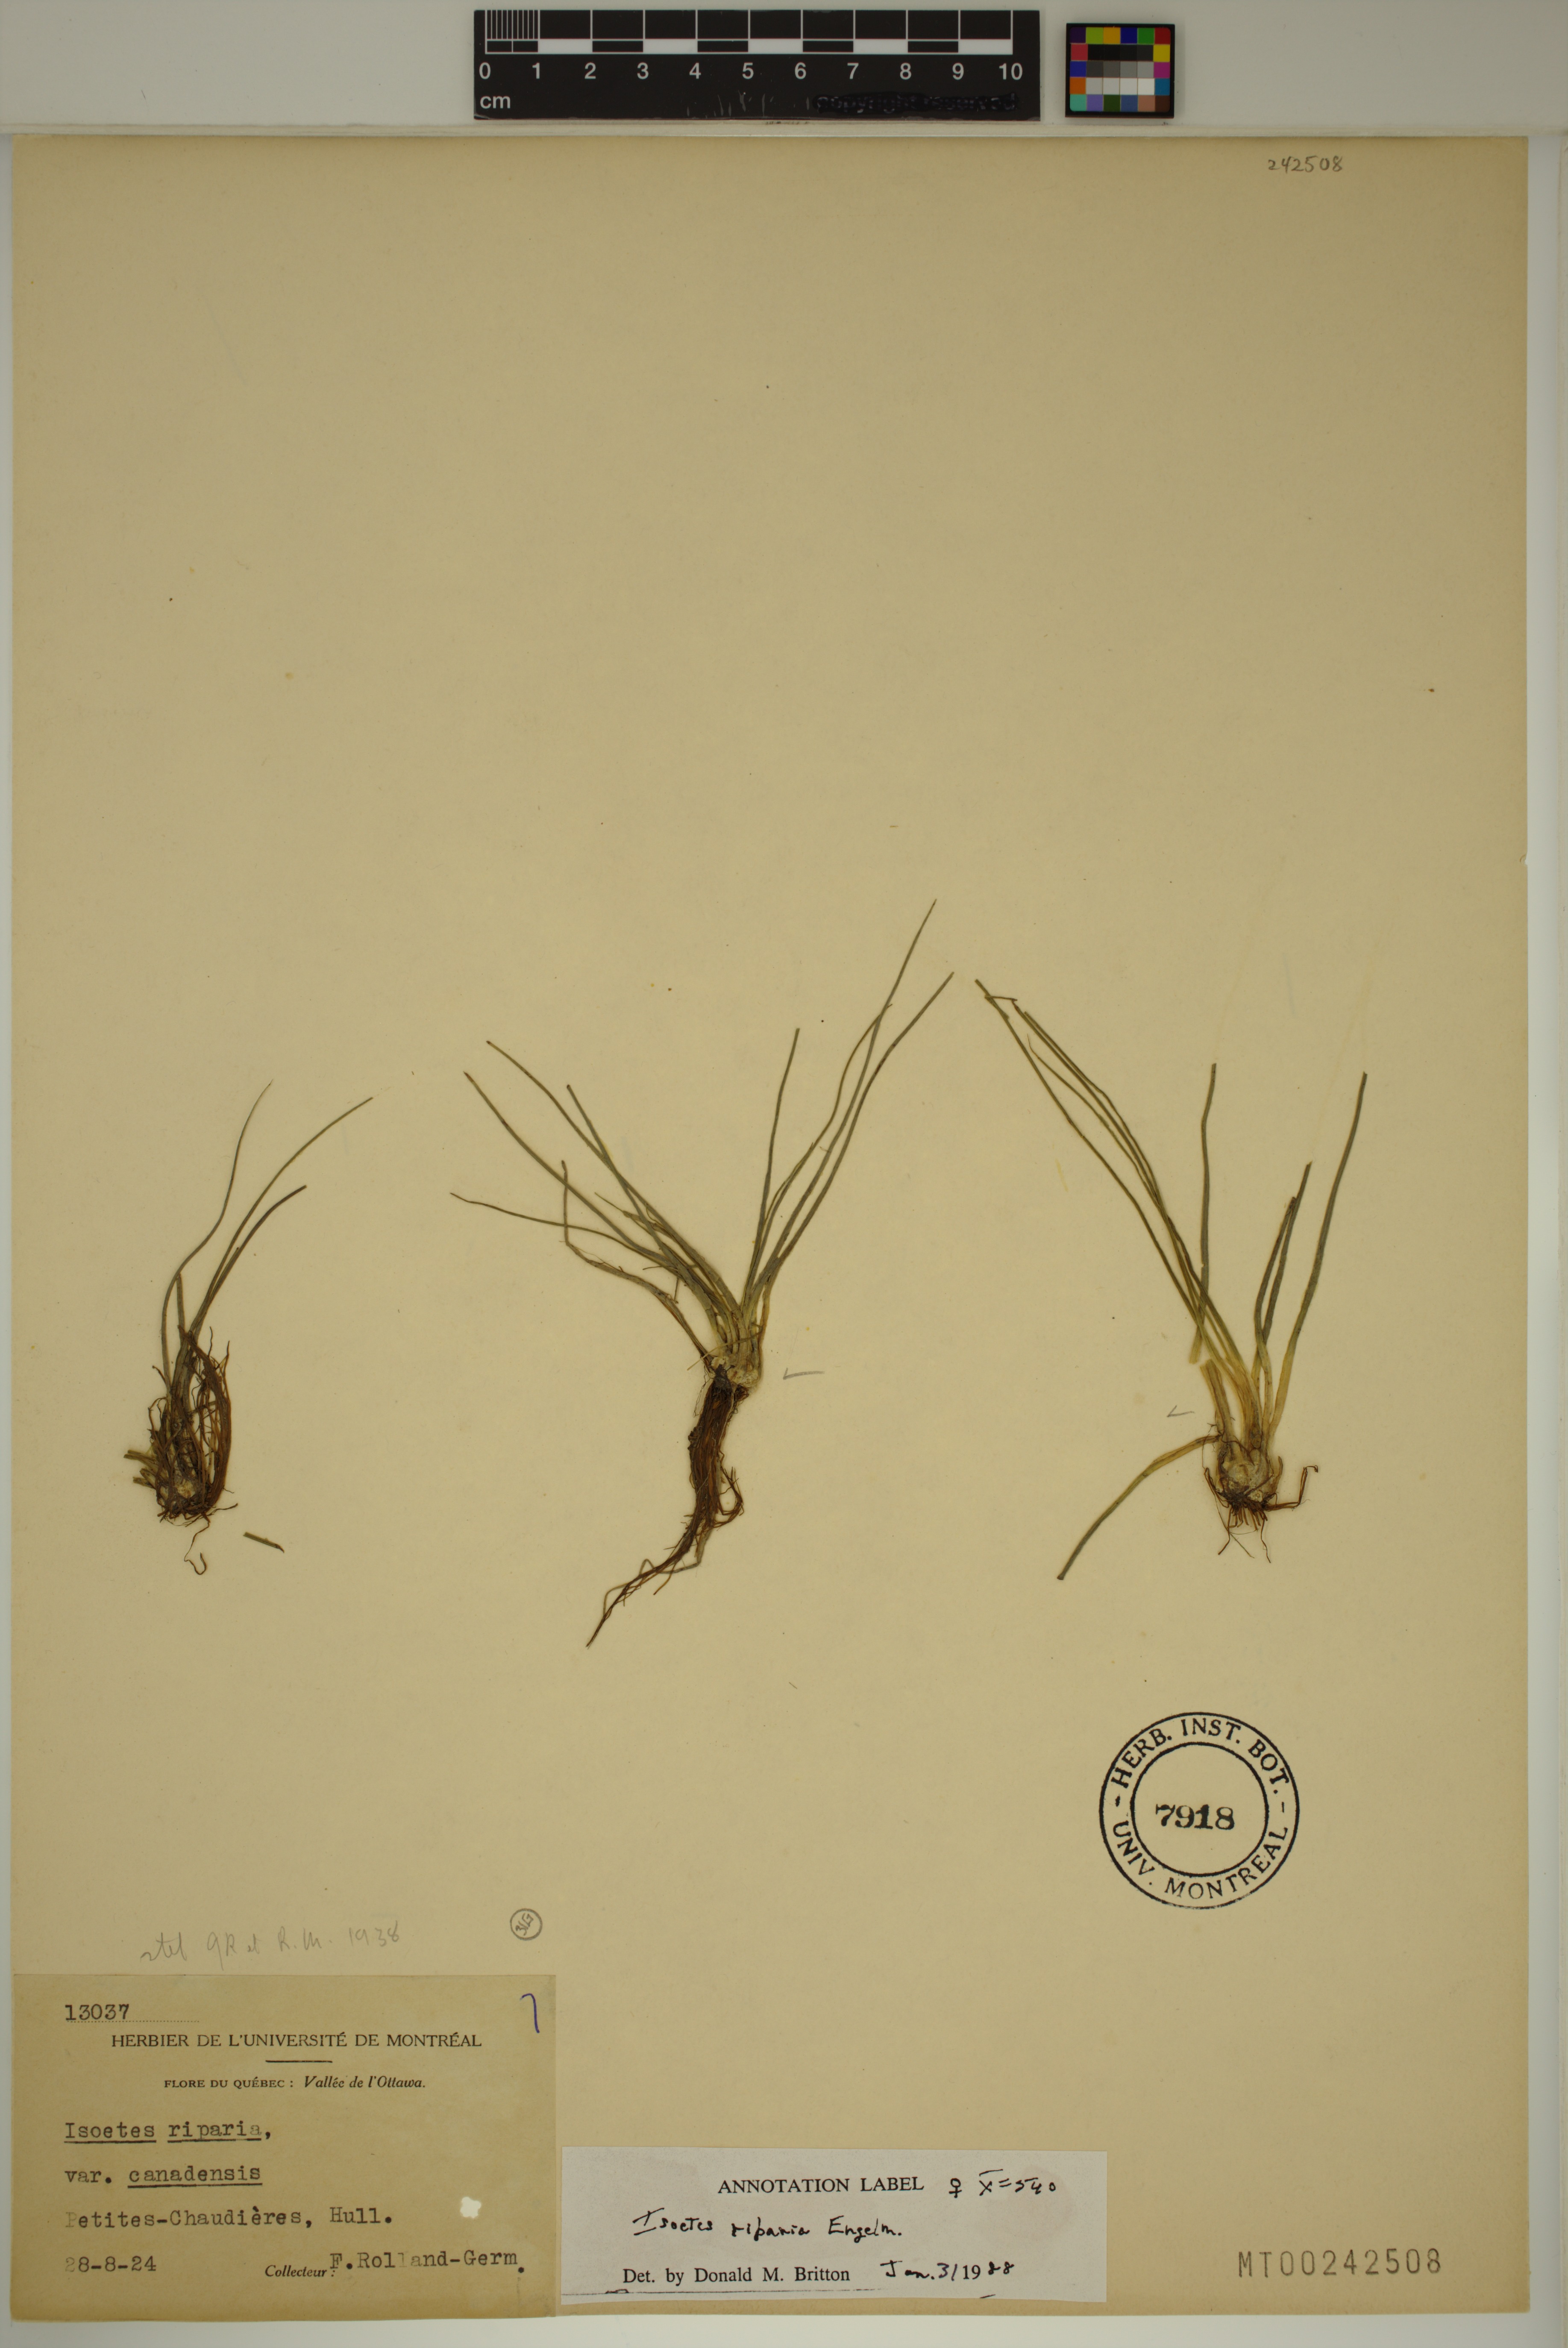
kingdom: Plantae
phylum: Tracheophyta
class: Lycopodiopsida
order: Isoetales
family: Isoetaceae
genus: Isoetes
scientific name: Isoetes septentrionalis
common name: Northern quillwort
